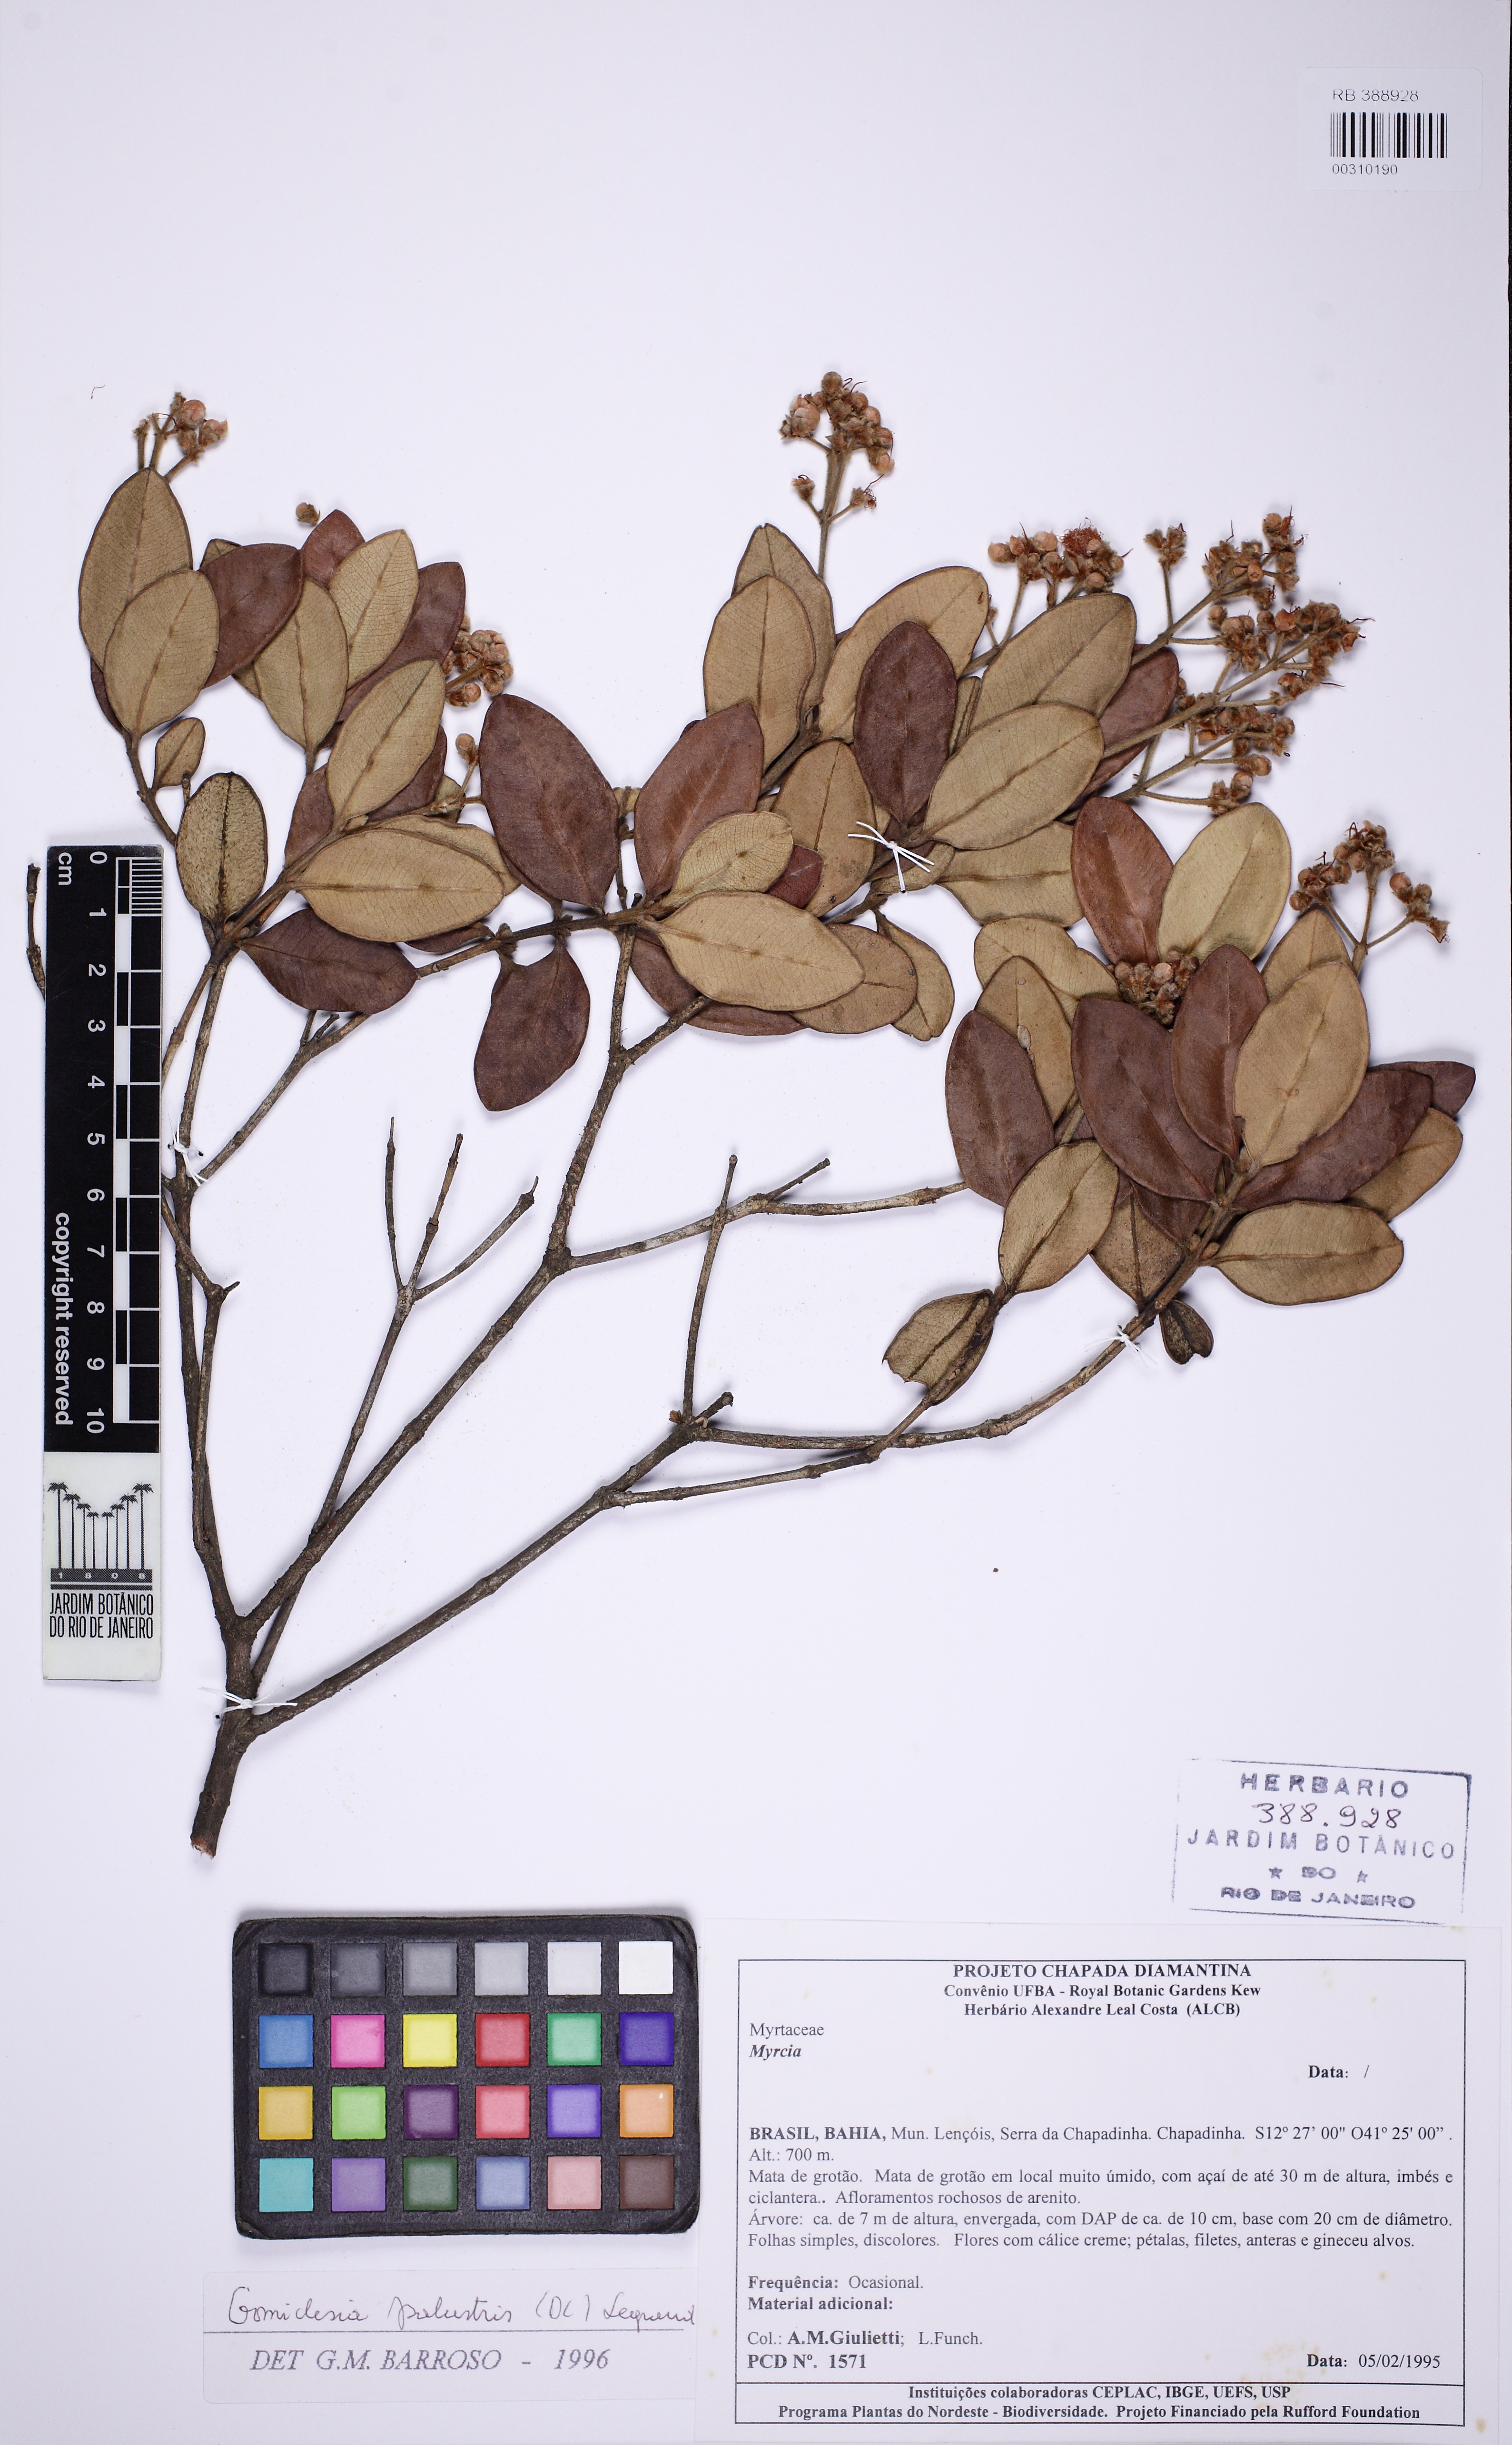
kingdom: Plantae
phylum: Tracheophyta
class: Magnoliopsida
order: Myrtales
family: Myrtaceae
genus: Myrcia
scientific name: Myrcia trichantha
